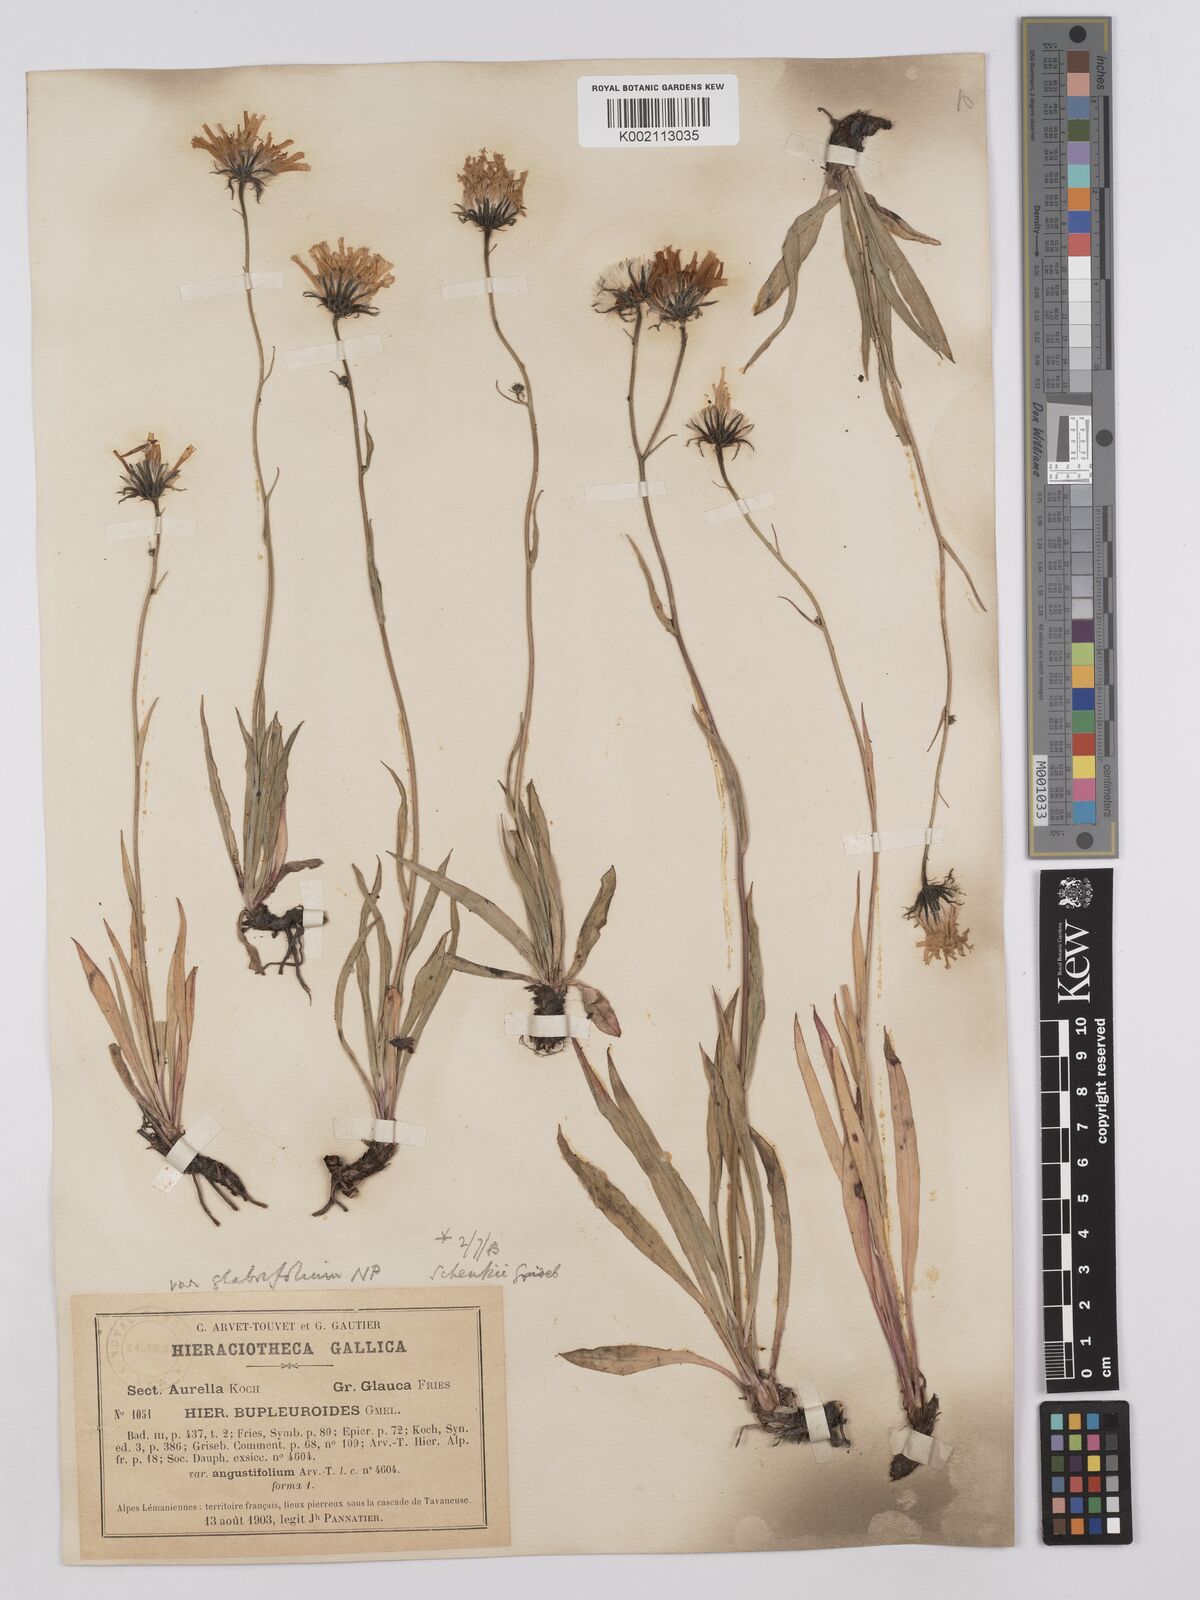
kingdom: Plantae
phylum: Tracheophyta
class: Magnoliopsida
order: Asterales
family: Asteraceae
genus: Hieracium
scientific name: Hieracium bupleuroides
